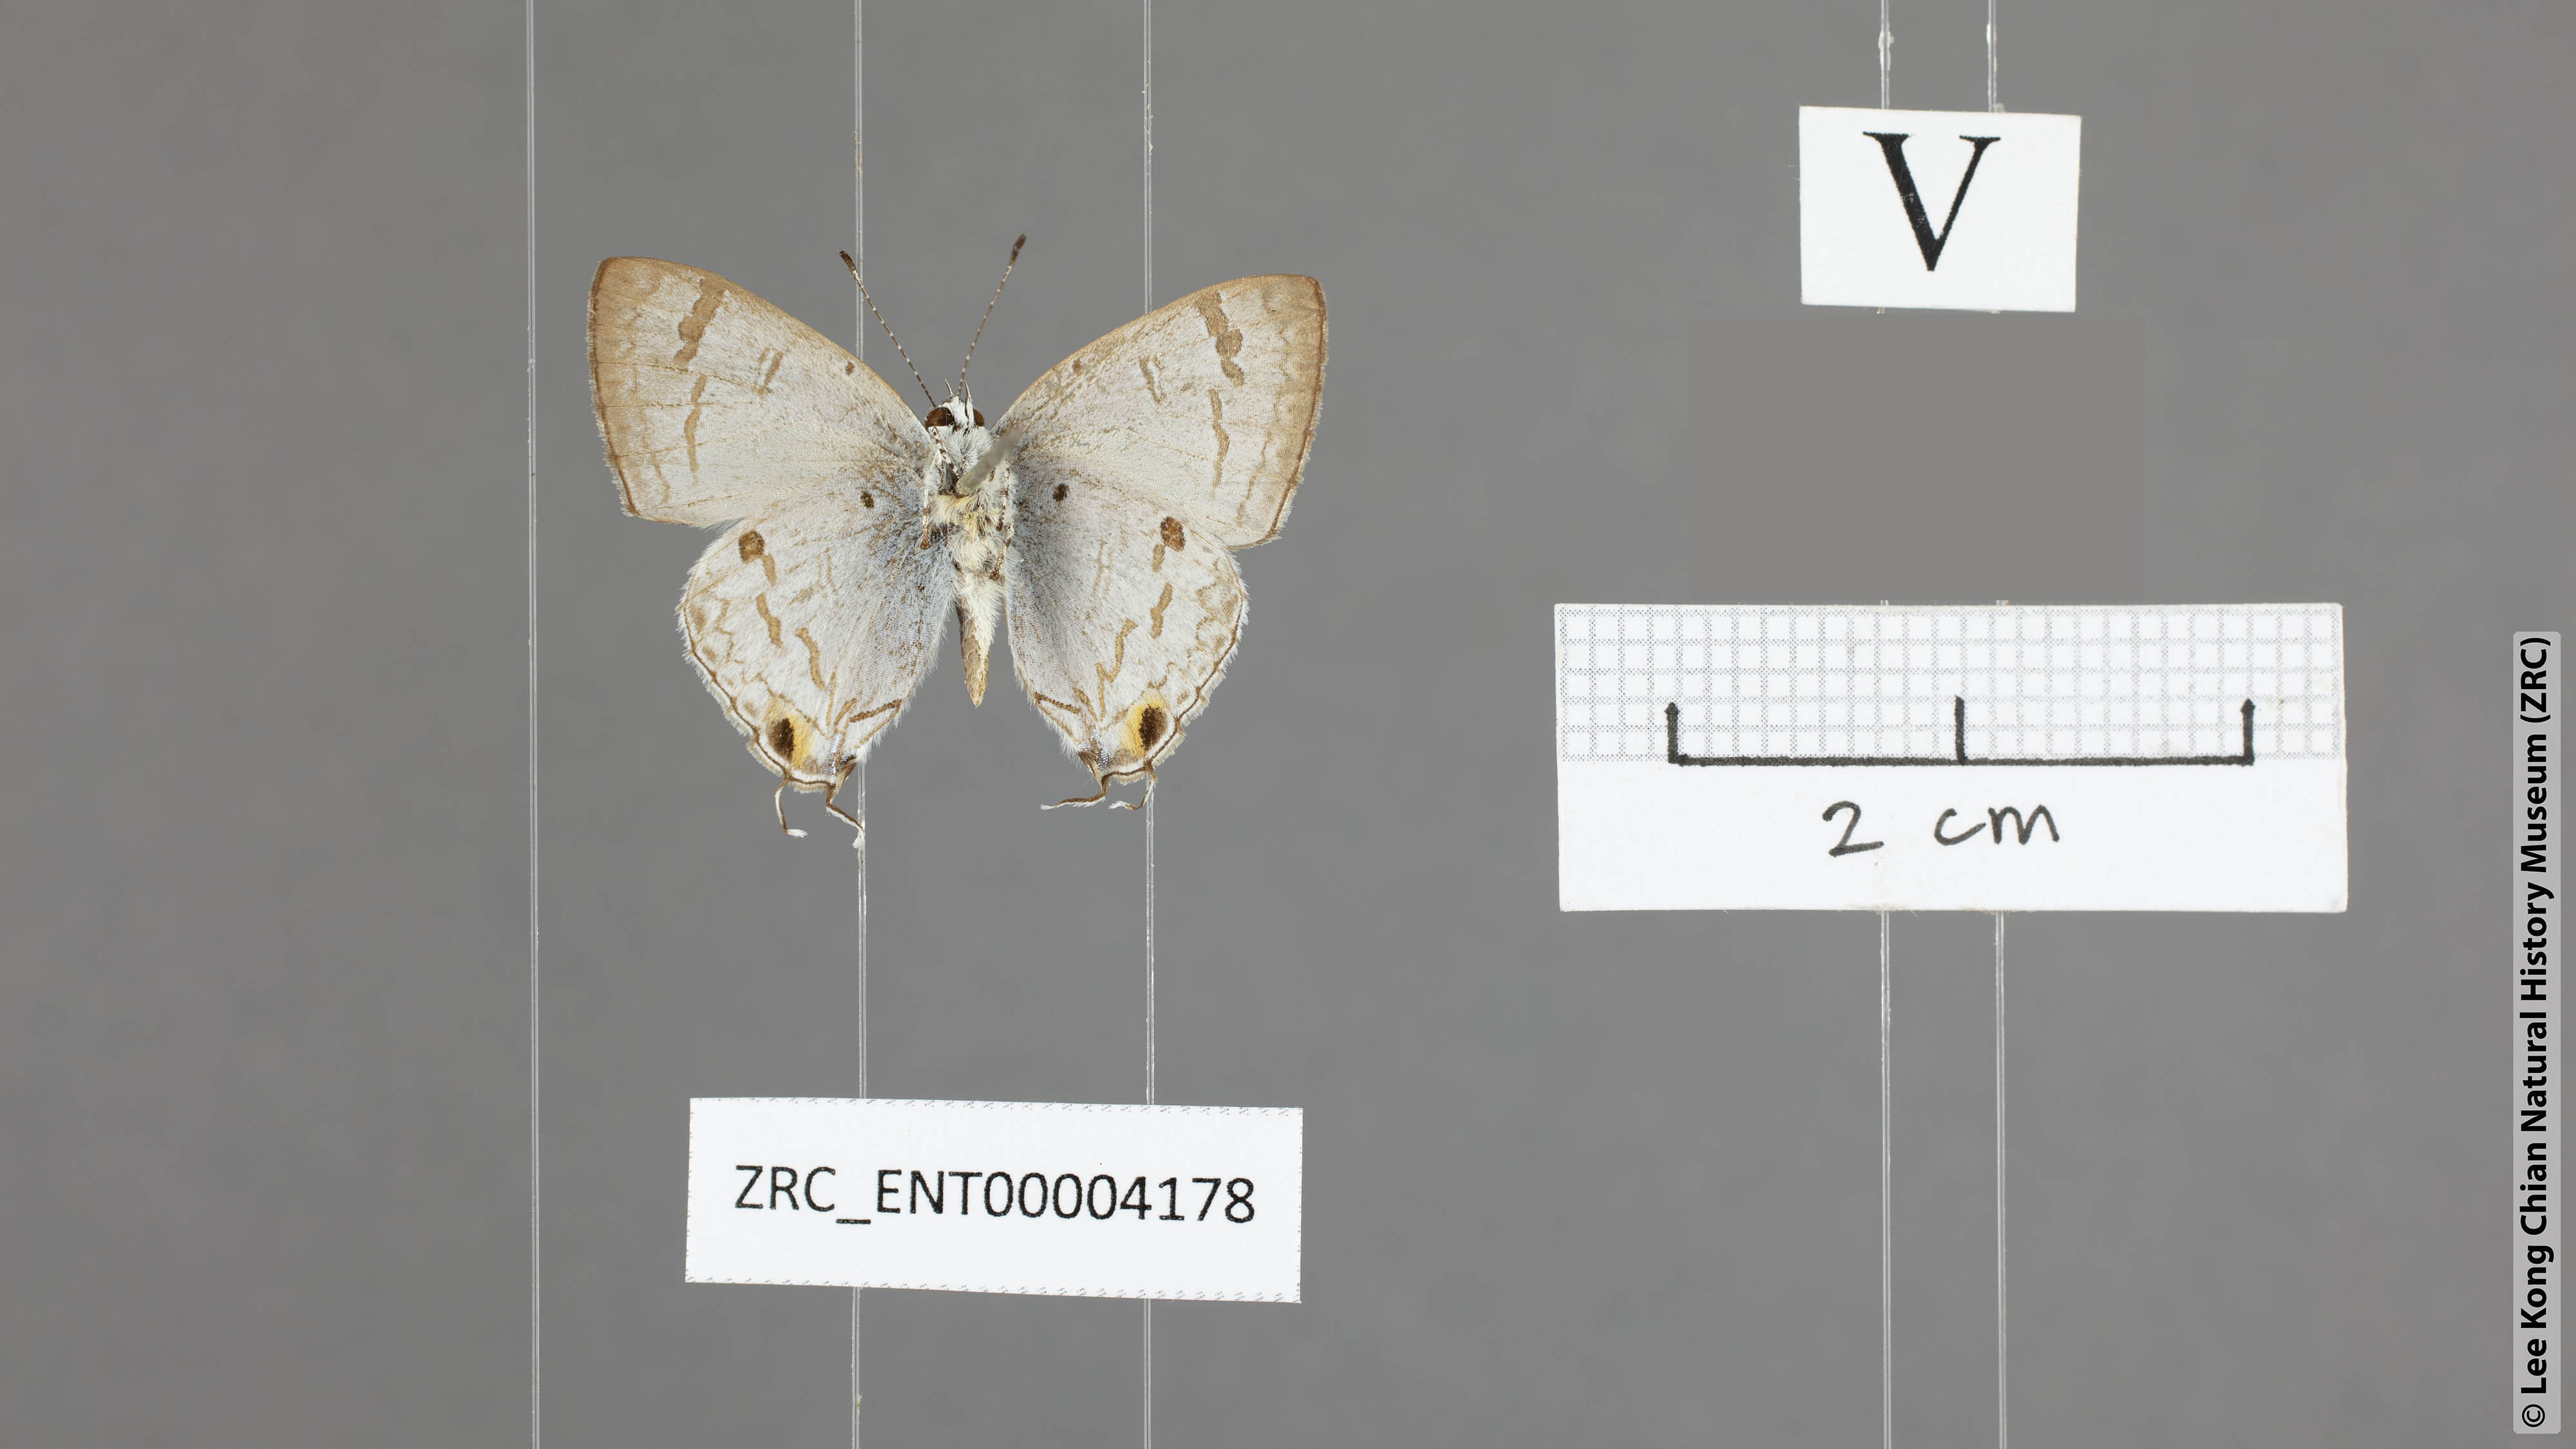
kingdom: Animalia
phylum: Arthropoda
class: Insecta
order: Lepidoptera
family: Lycaenidae
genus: Chliaria
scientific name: Chliaria pahanga
